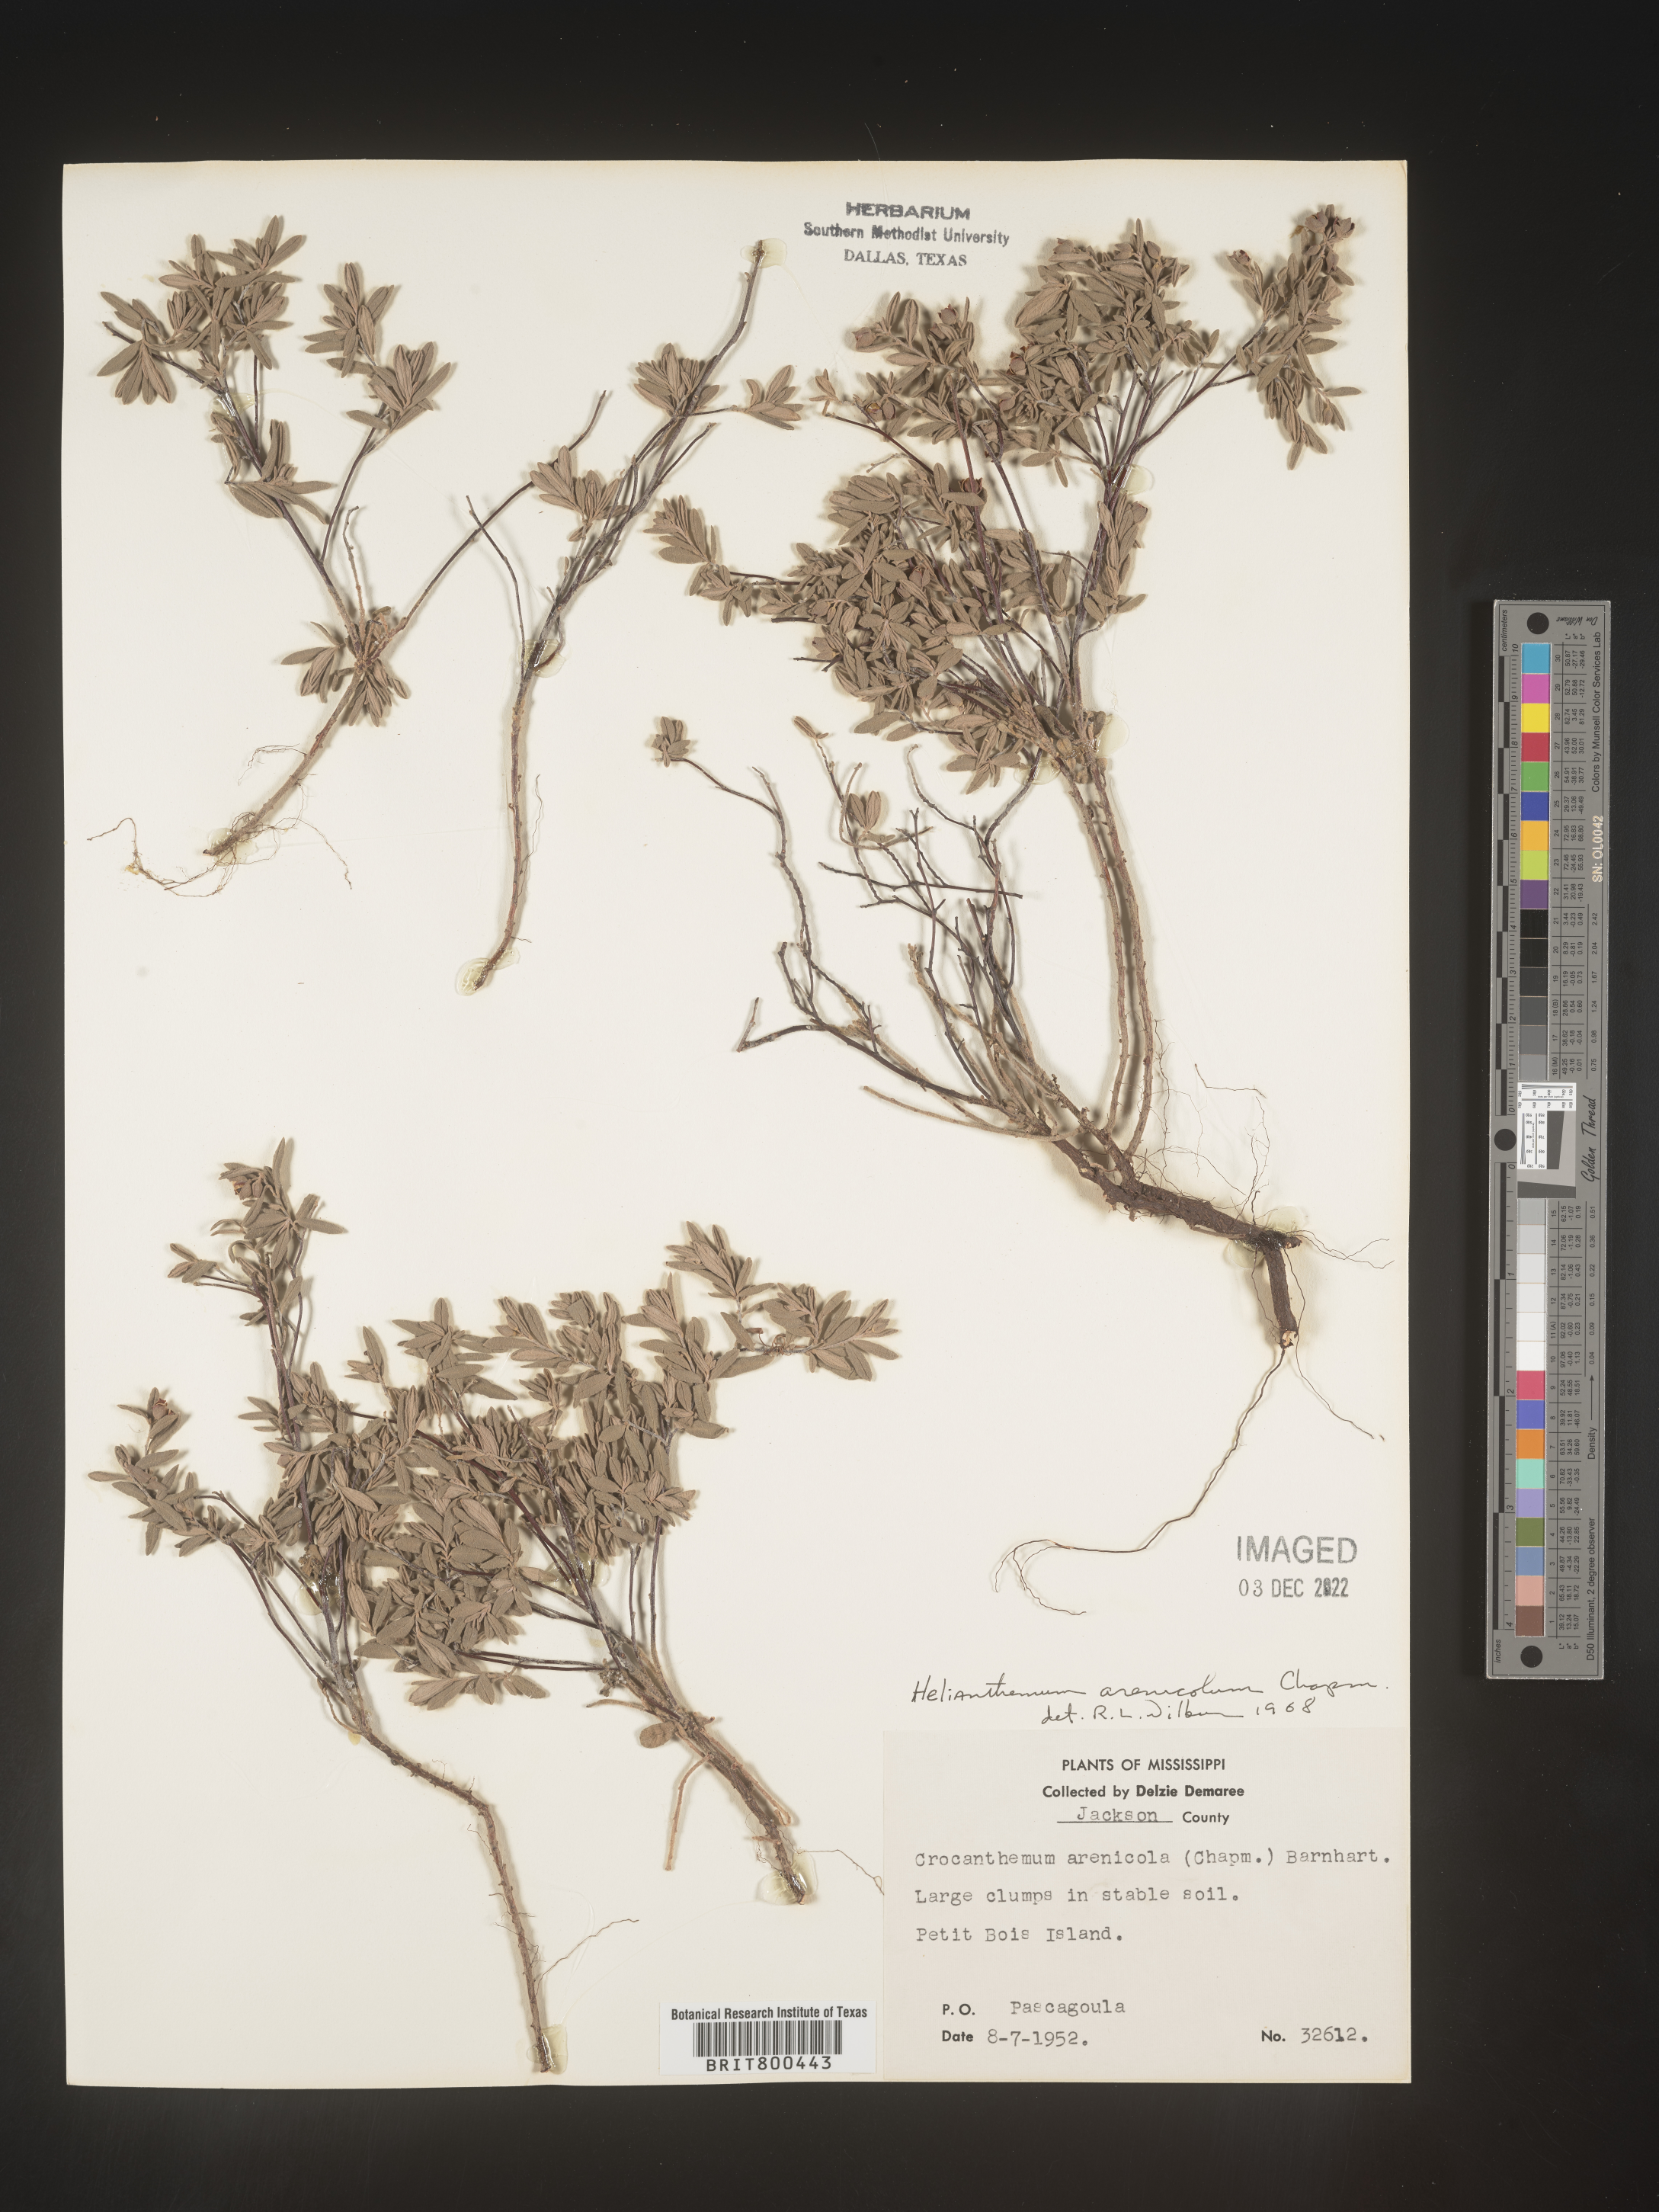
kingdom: Plantae
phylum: Tracheophyta
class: Magnoliopsida
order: Malvales
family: Cistaceae
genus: Helianthemum
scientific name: Helianthemum
